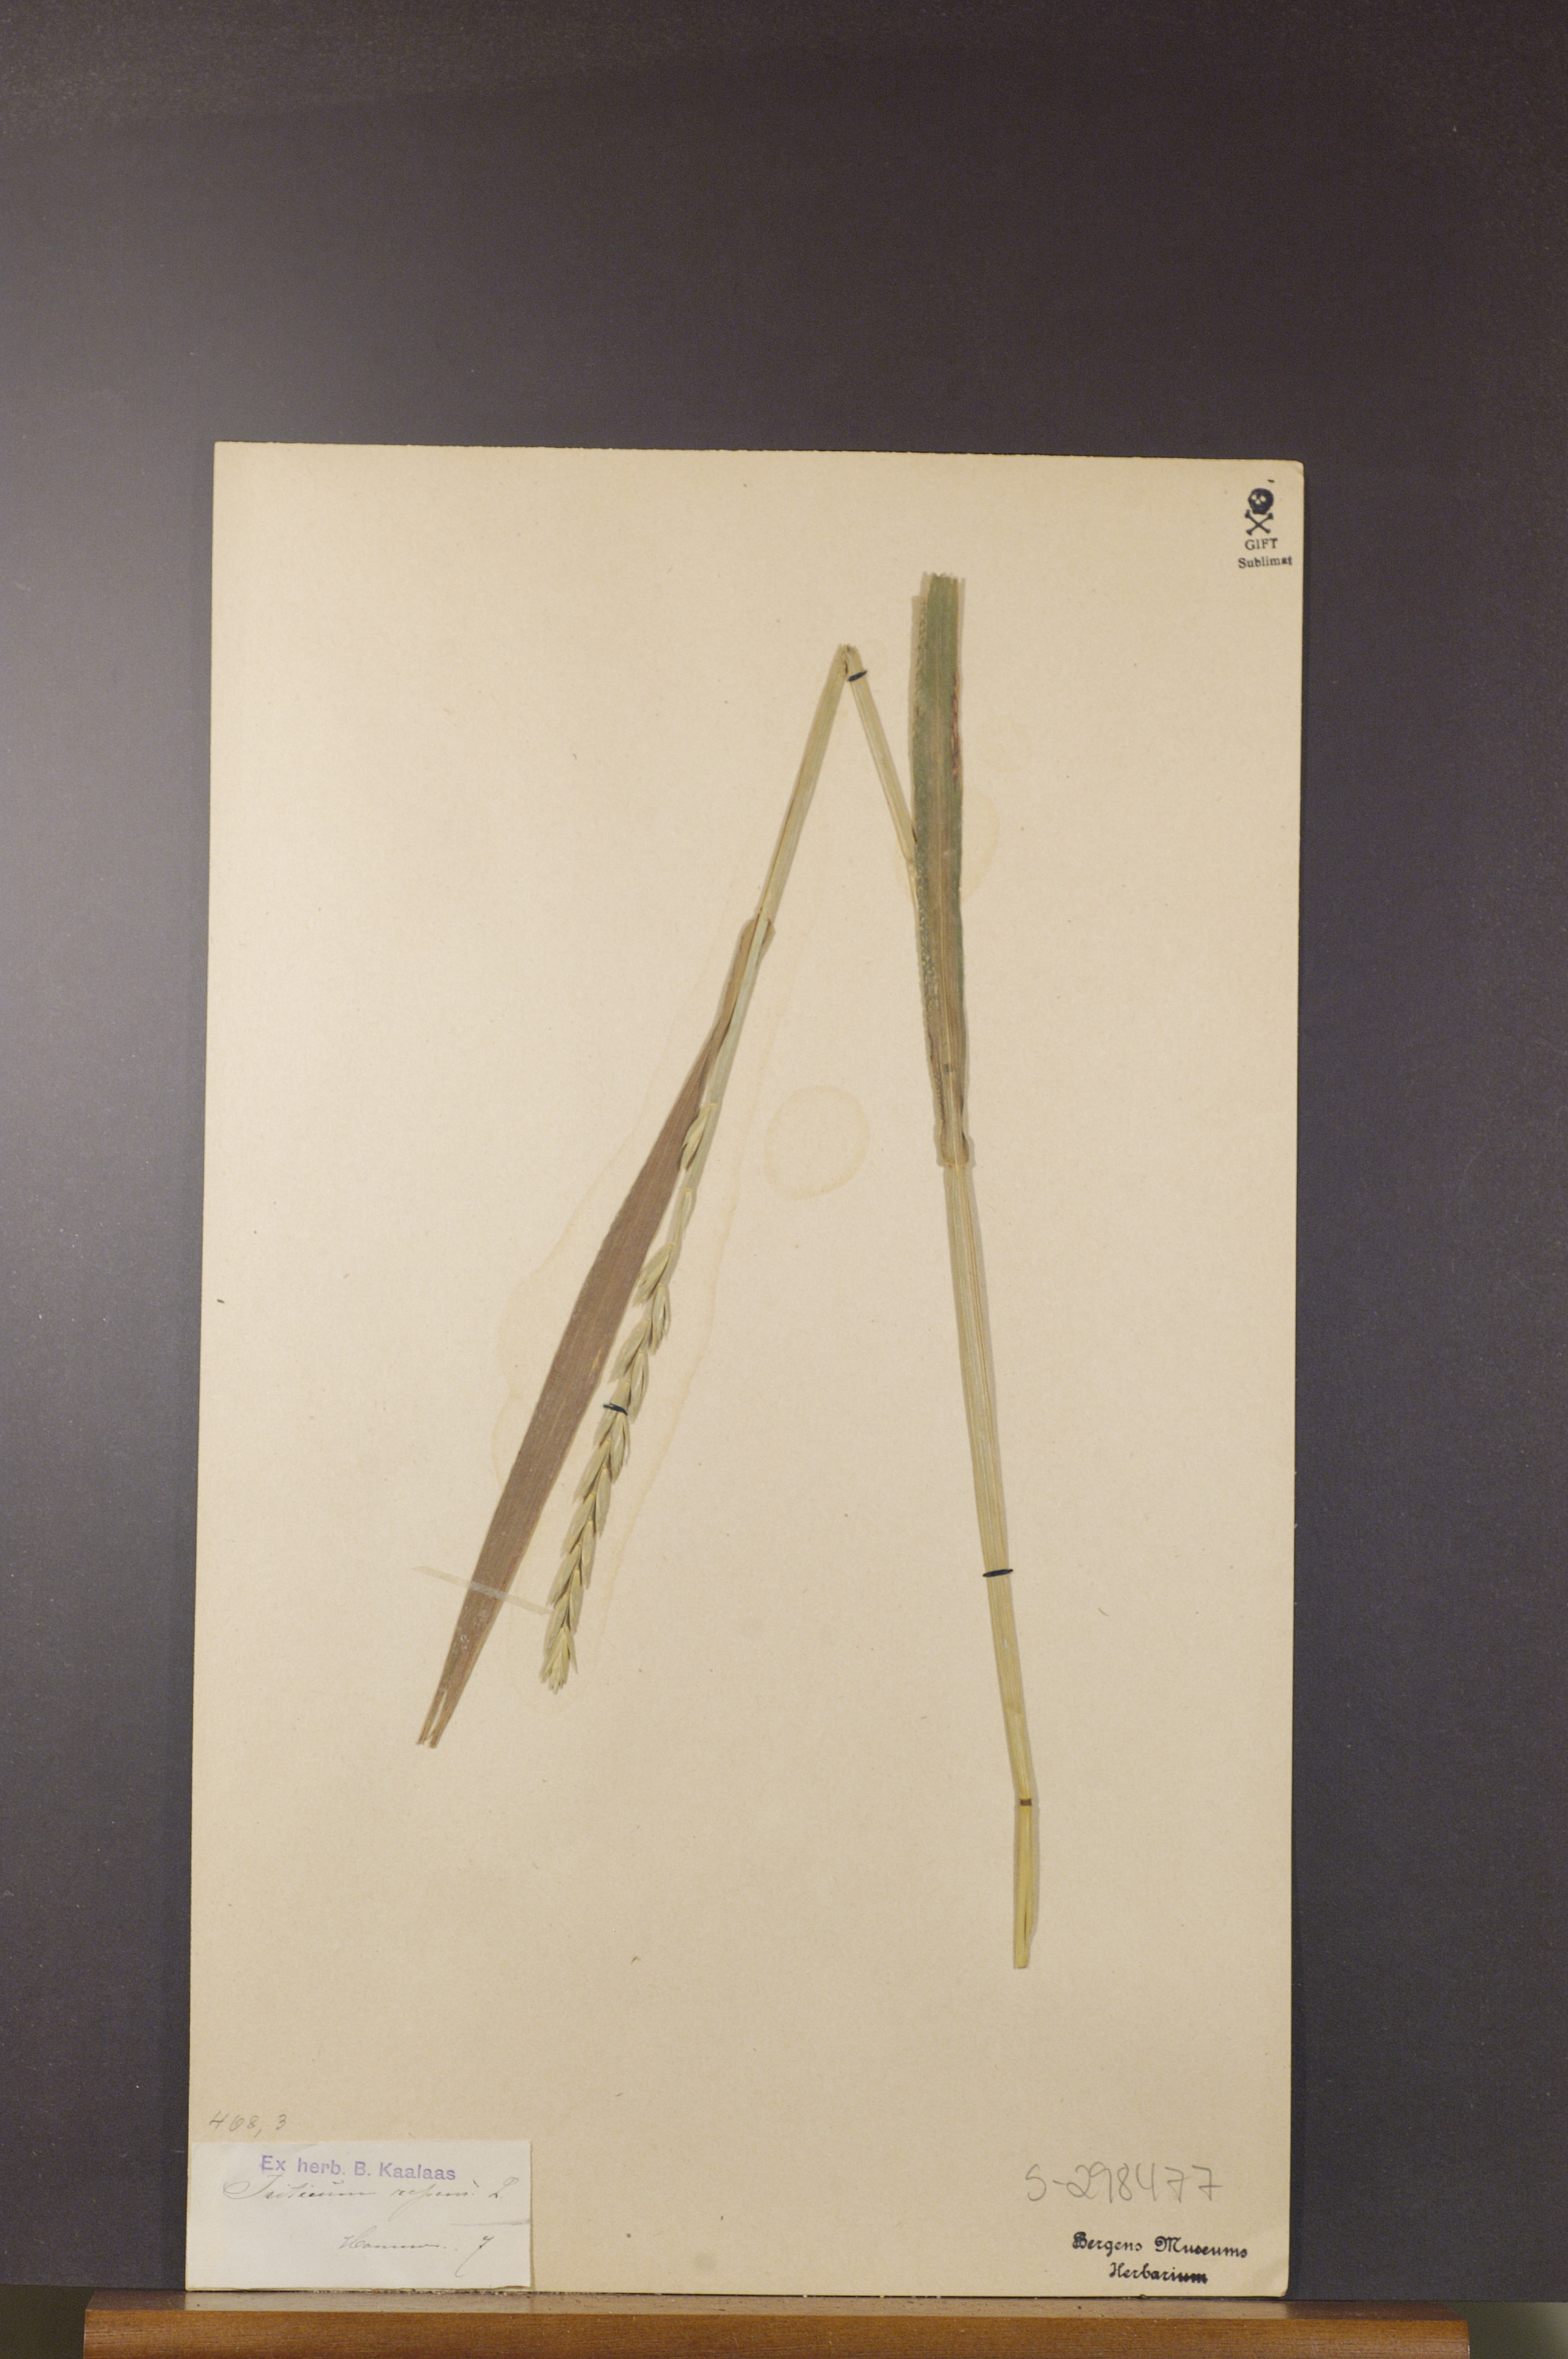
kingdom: Plantae
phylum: Tracheophyta
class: Liliopsida
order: Poales
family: Poaceae
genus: Elymus
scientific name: Elymus repens
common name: Quackgrass
